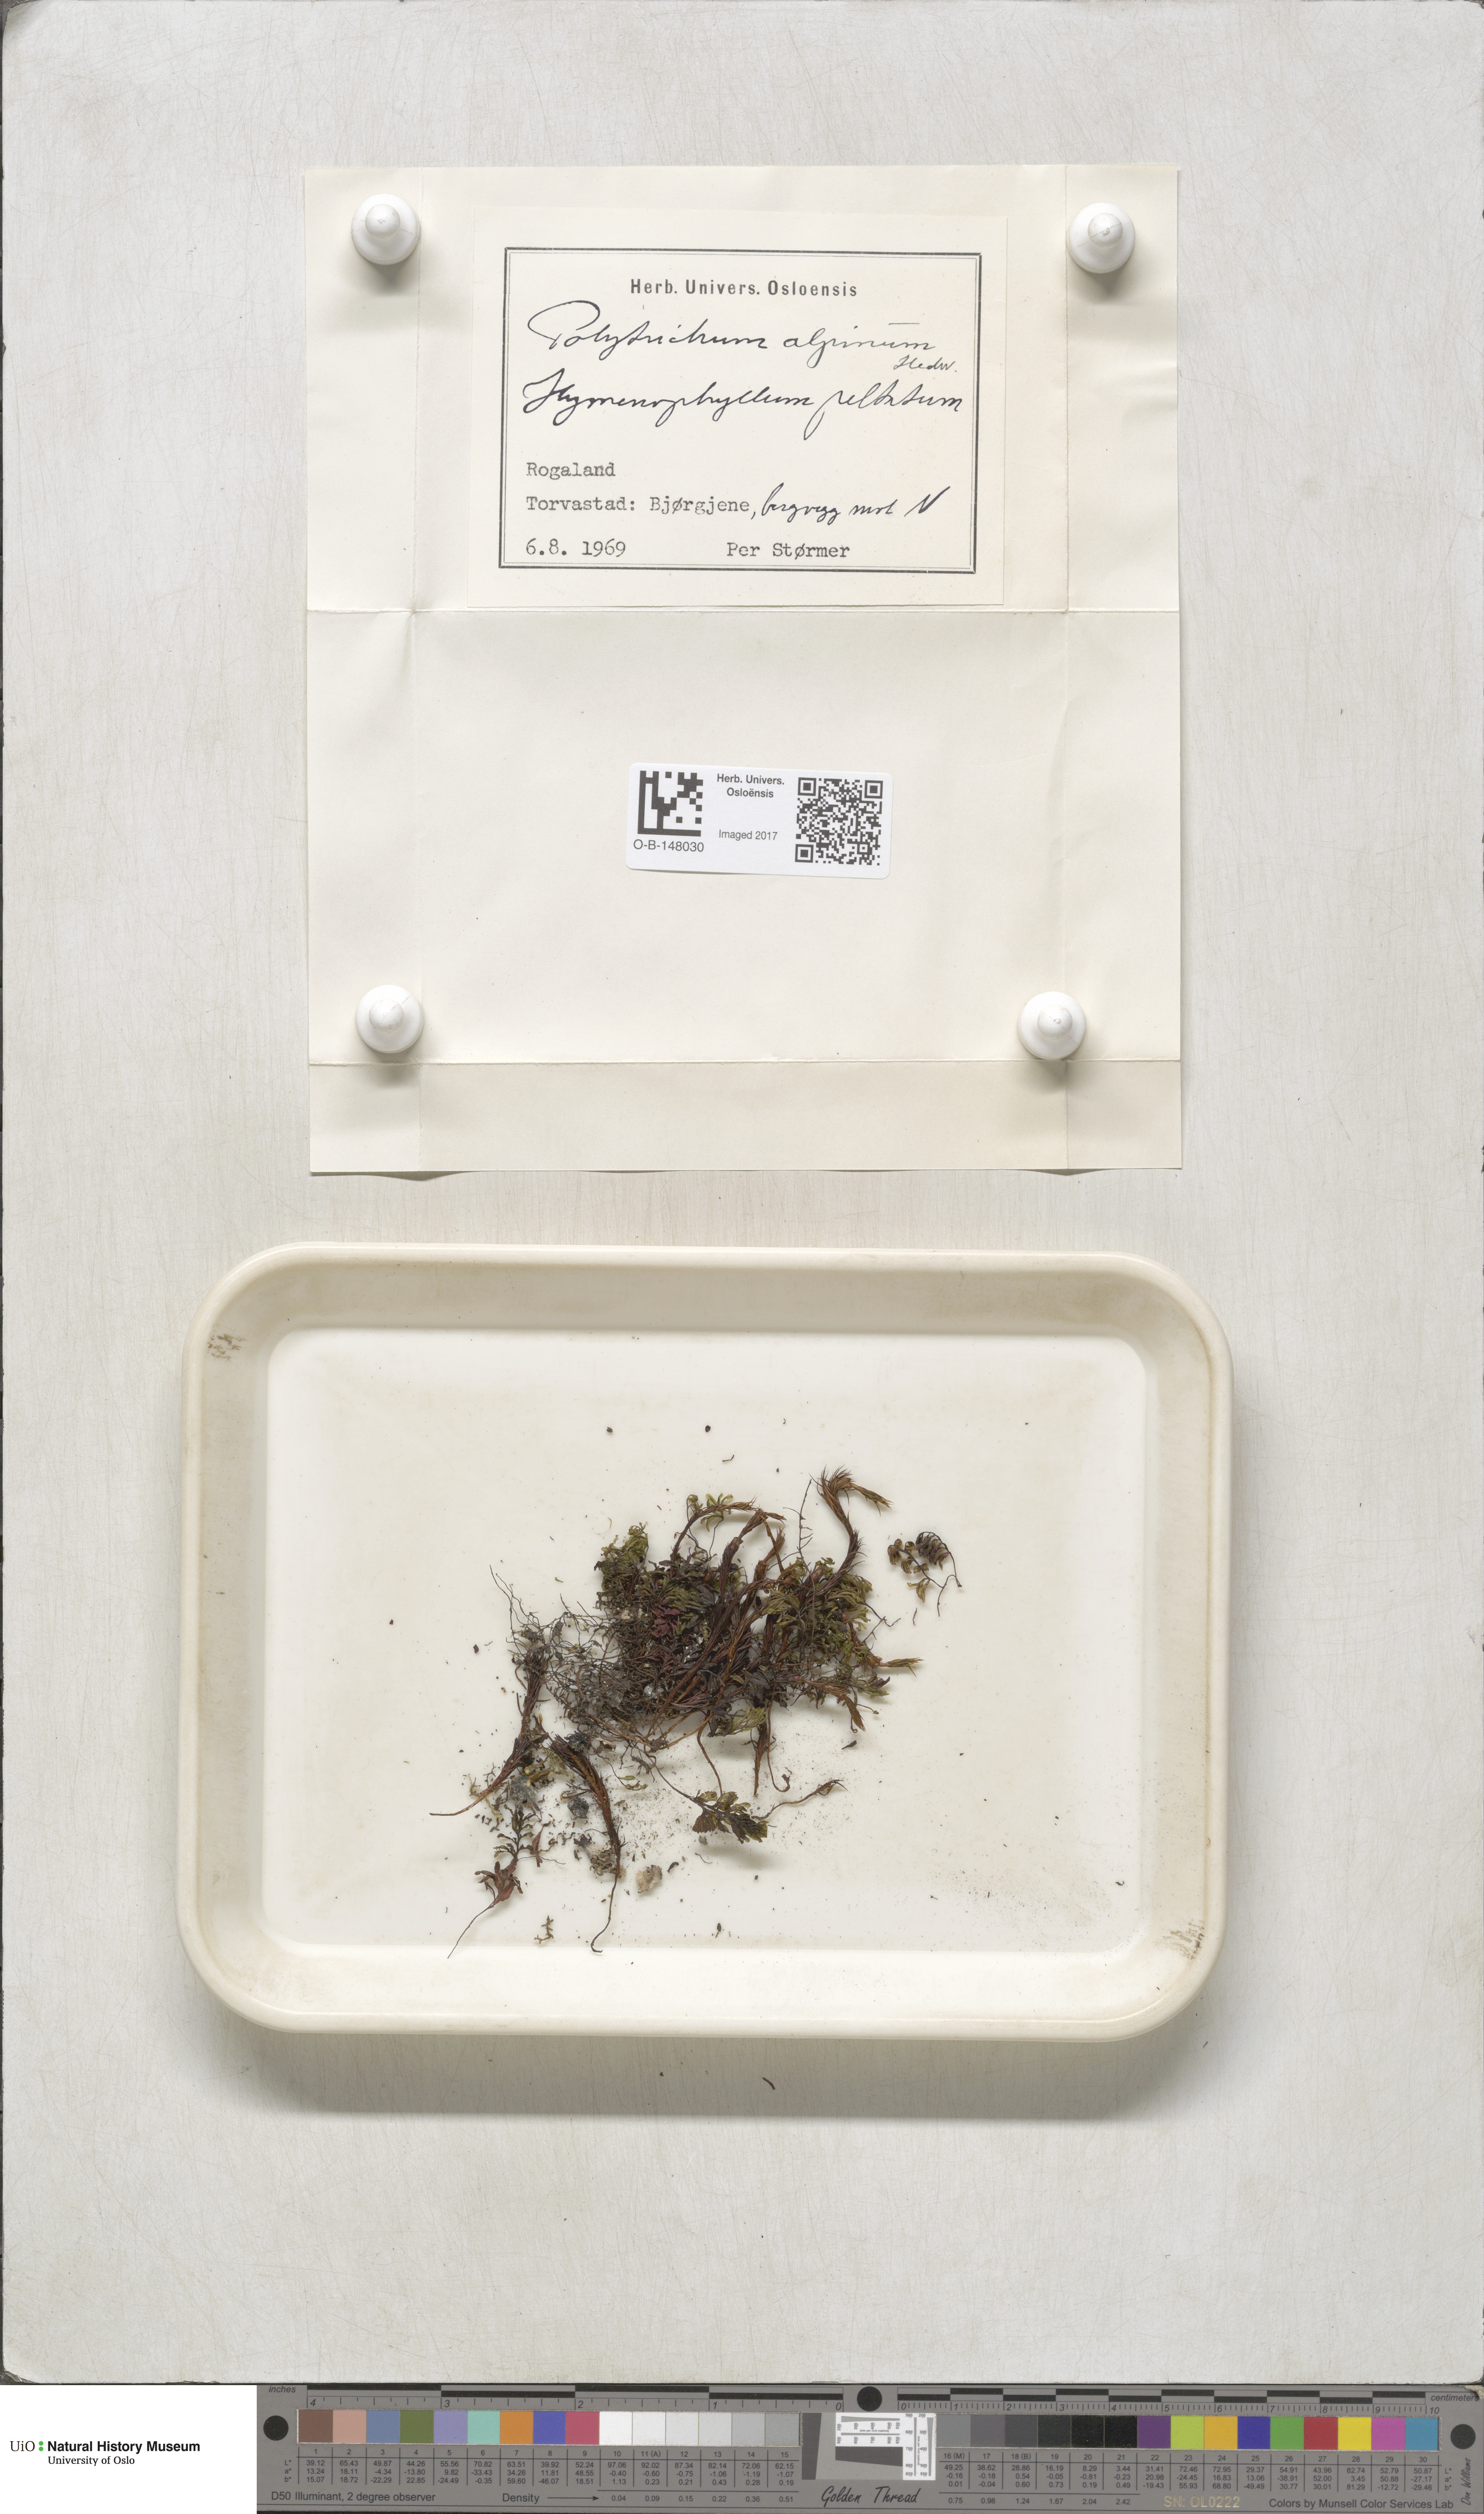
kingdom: Plantae
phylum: Bryophyta
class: Polytrichopsida
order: Polytrichales
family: Polytrichaceae
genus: Polytrichastrum
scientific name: Polytrichastrum alpinum
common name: Alpine haircap
